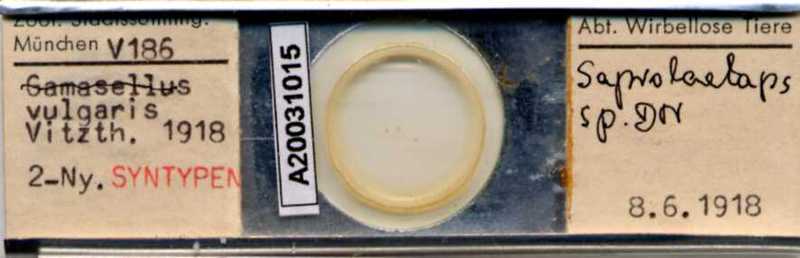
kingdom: Animalia
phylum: Arthropoda
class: Arachnida
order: Mesostigmata
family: Halolaelapidae
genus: Saprolaelaps
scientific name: Saprolaelaps
